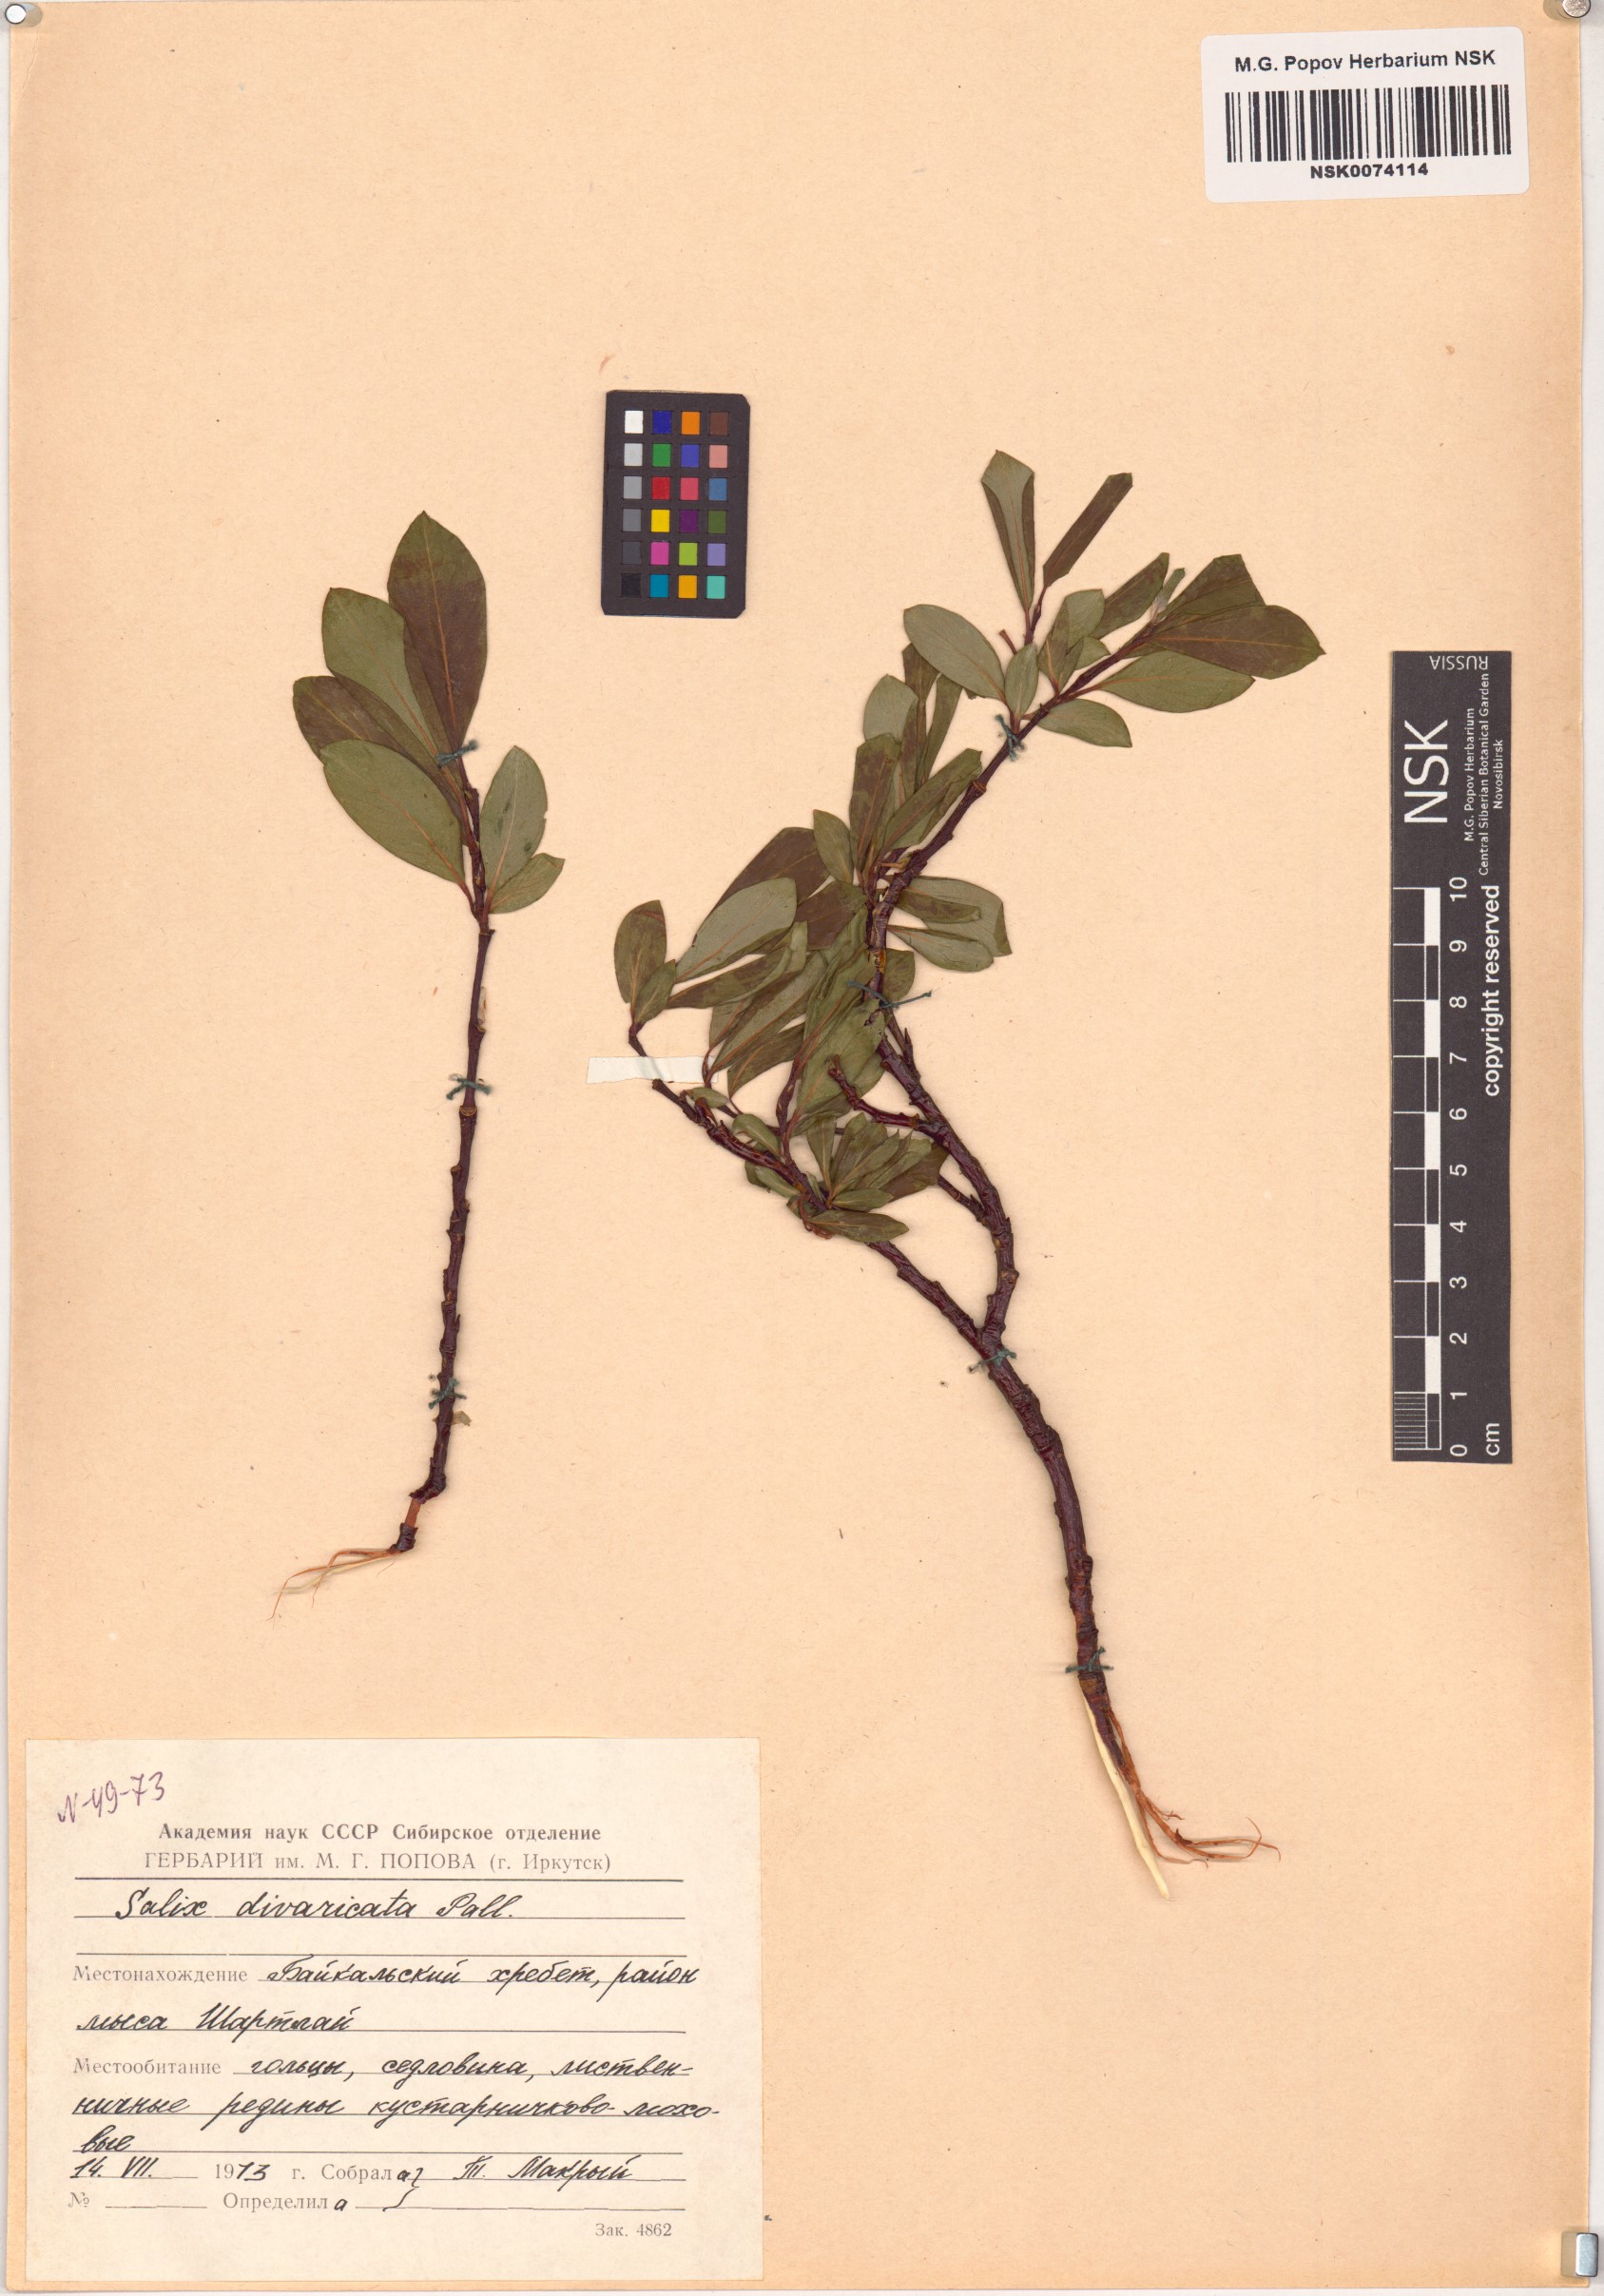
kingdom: Plantae
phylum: Tracheophyta
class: Magnoliopsida
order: Malpighiales
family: Salicaceae
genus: Salix
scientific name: Salix divaricata
